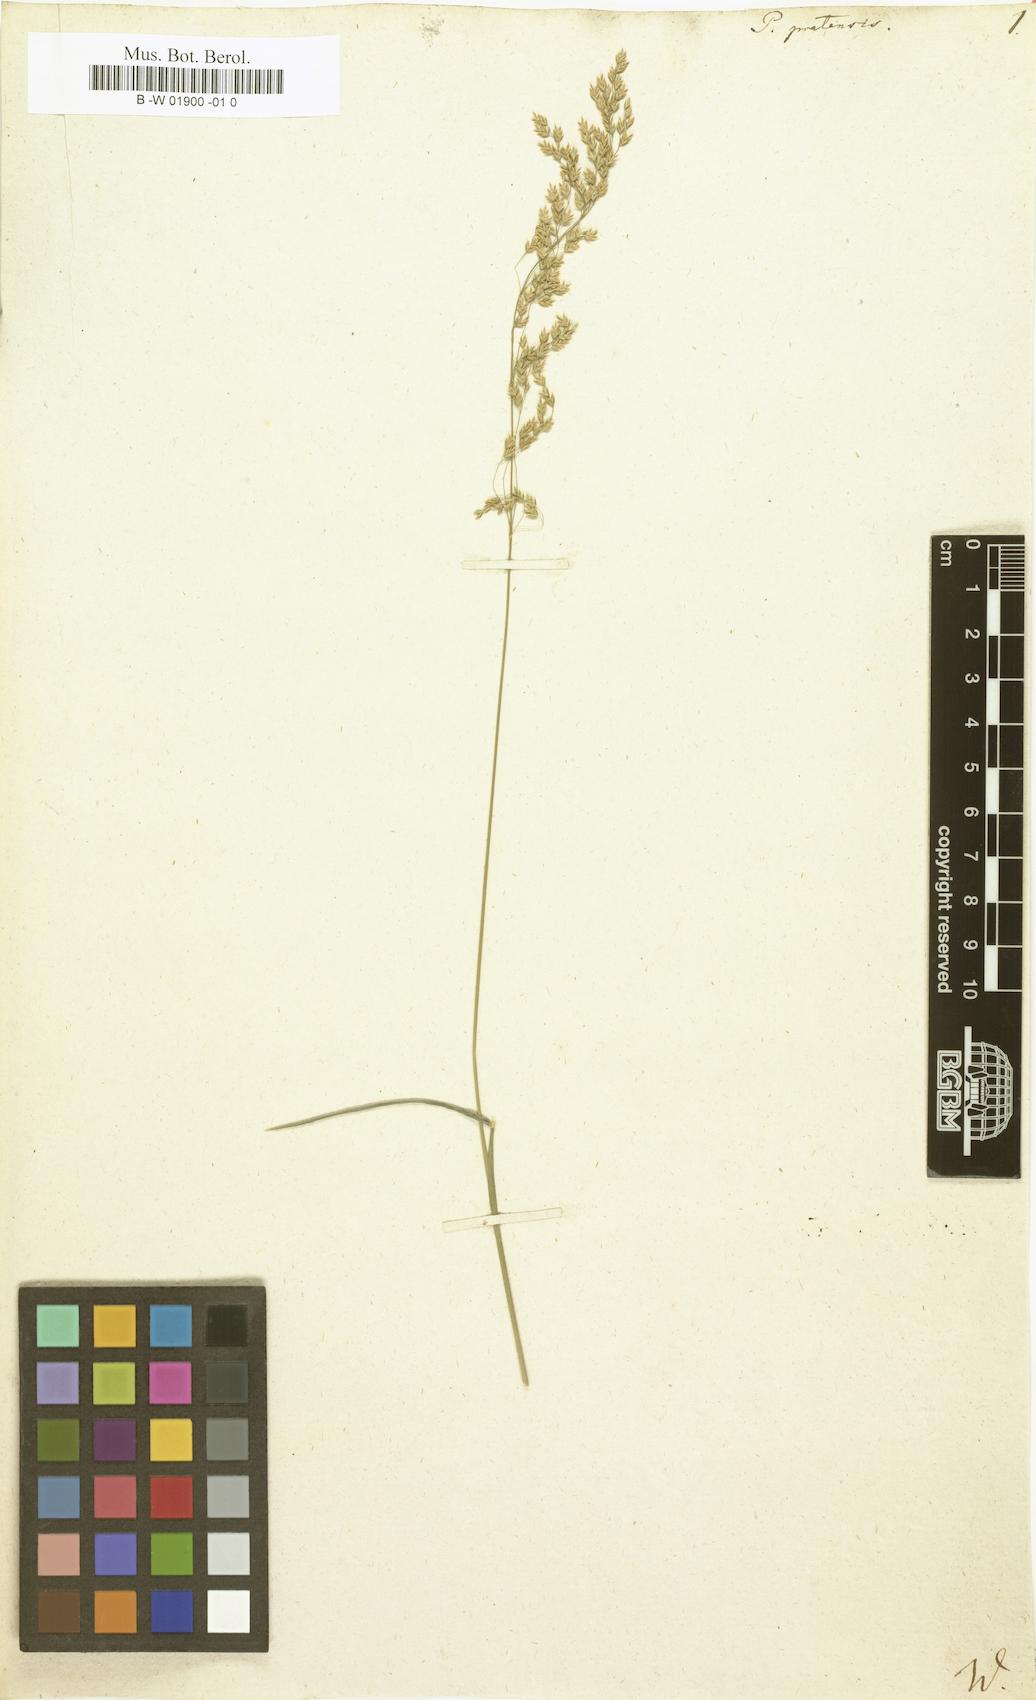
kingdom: Plantae
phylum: Tracheophyta
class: Liliopsida
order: Poales
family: Poaceae
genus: Poa
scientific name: Poa pratensis
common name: Kentucky bluegrass
